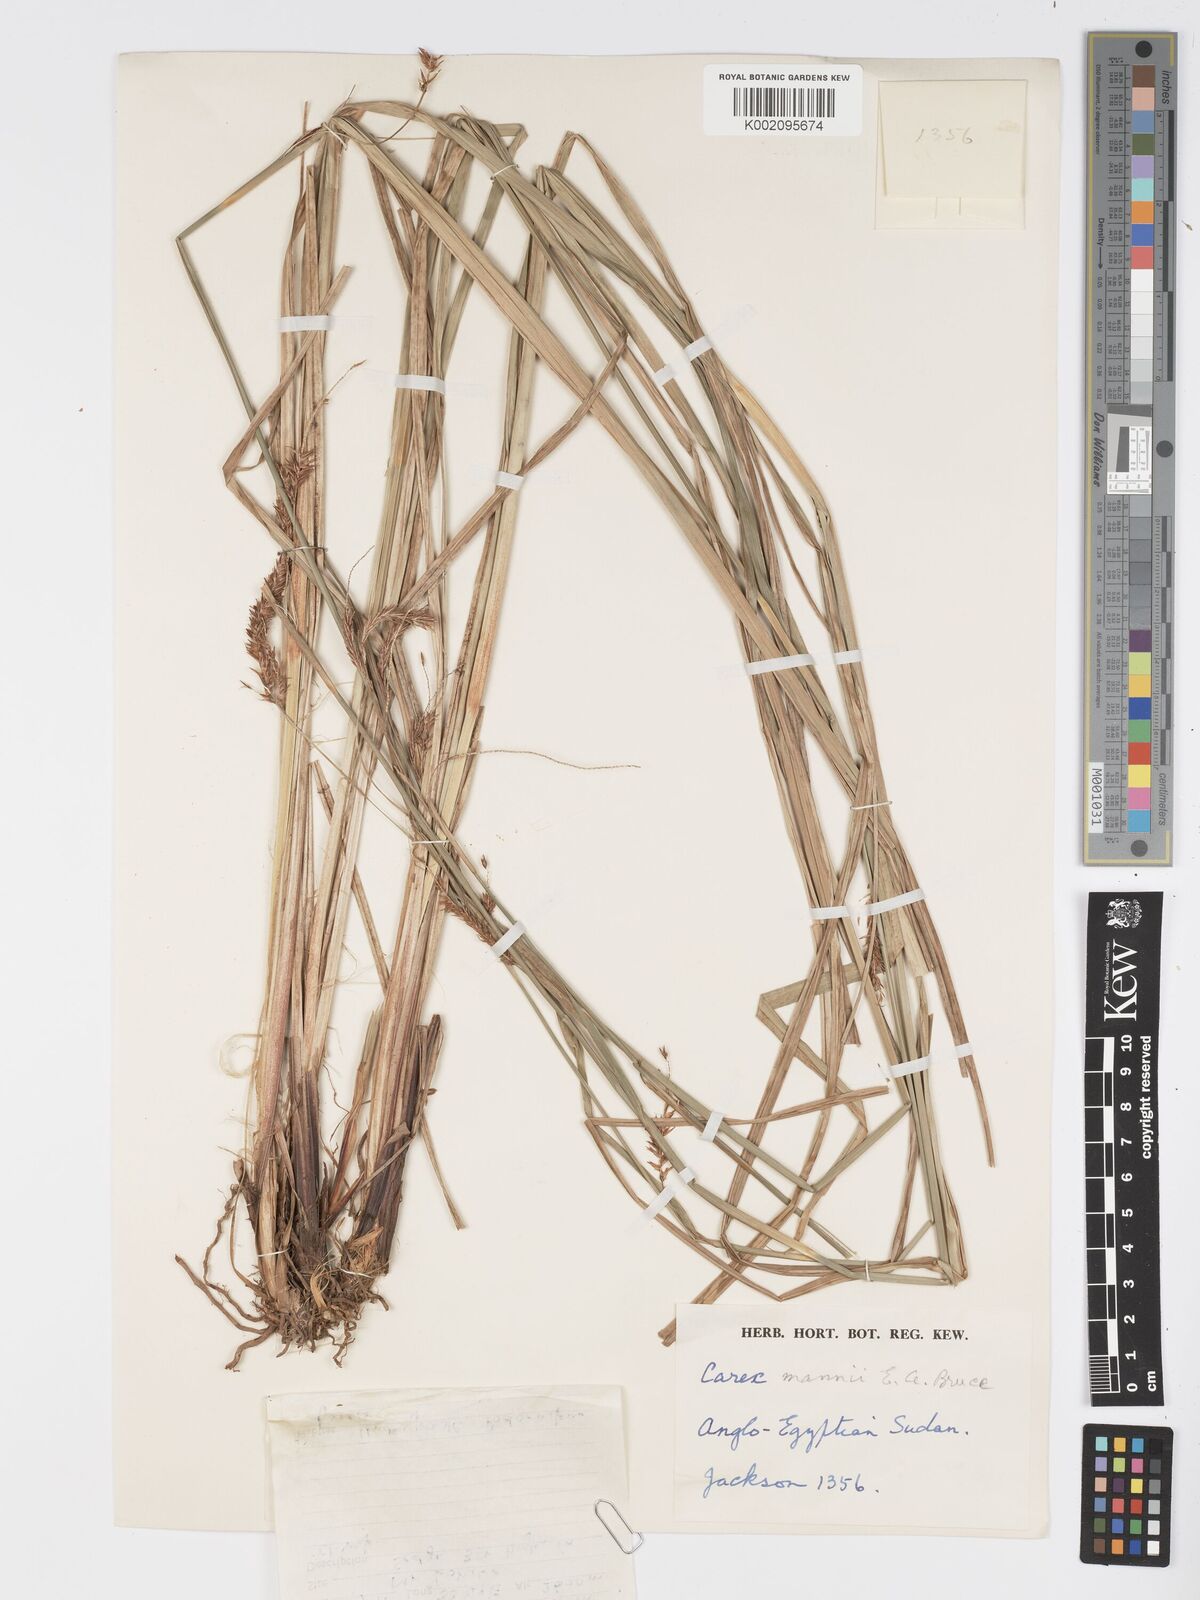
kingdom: Plantae
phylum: Tracheophyta
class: Liliopsida
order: Poales
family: Cyperaceae
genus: Carex
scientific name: Carex mannii
